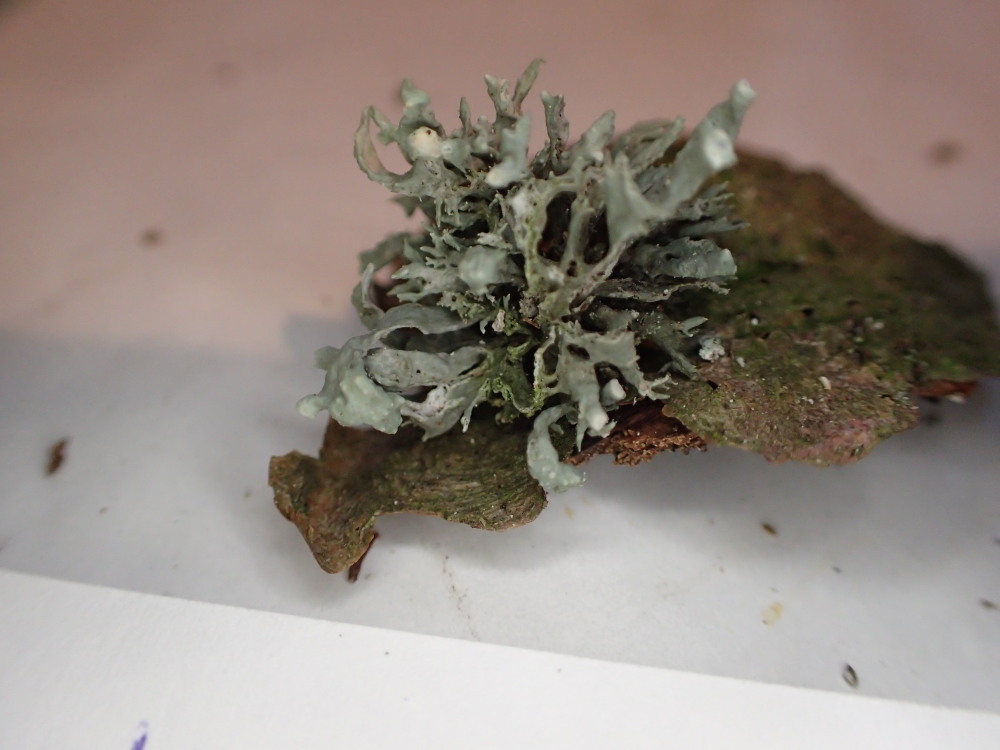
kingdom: Fungi
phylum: Ascomycota
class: Lecanoromycetes
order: Lecanorales
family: Ramalinaceae
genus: Ramalina
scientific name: Ramalina farinacea
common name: melet grenlav
